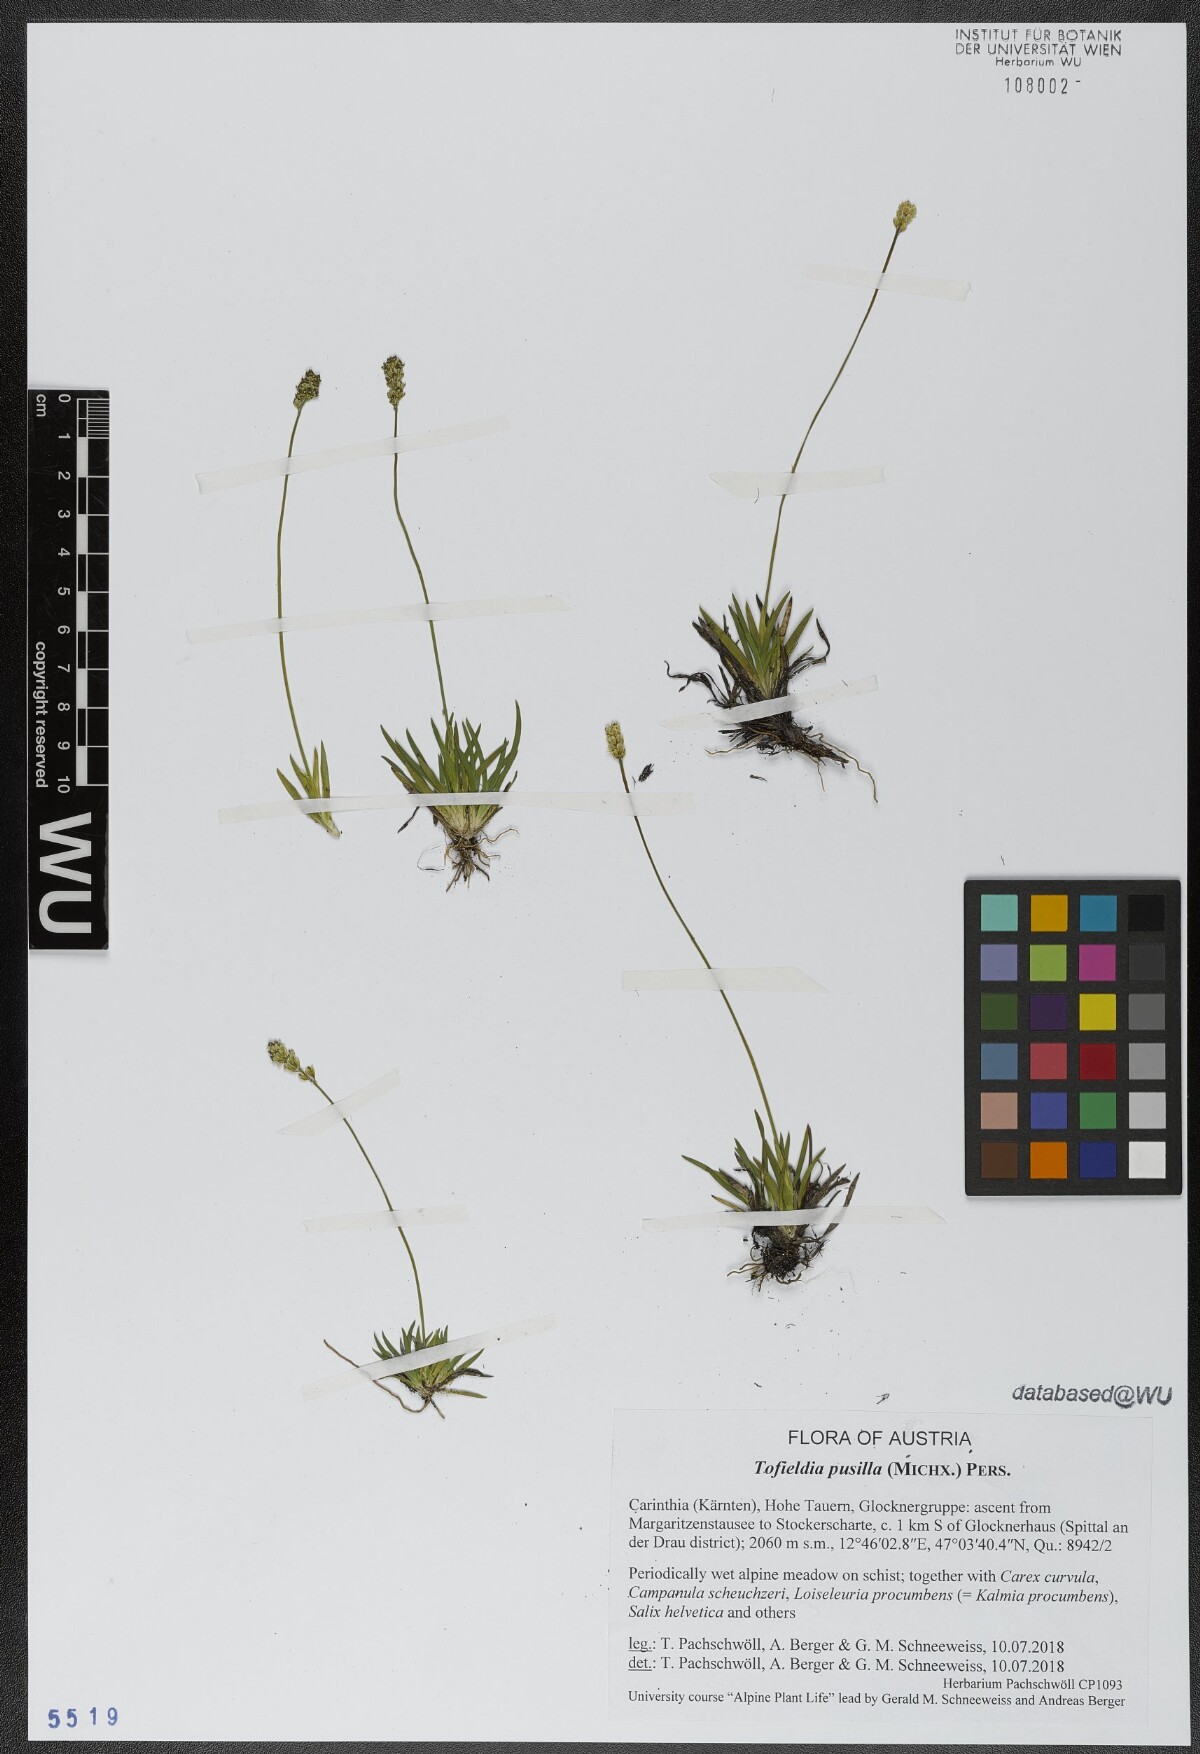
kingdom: Plantae
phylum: Tracheophyta
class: Liliopsida
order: Alismatales
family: Tofieldiaceae
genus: Tofieldia
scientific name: Tofieldia pusilla
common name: Scottish false asphodel
